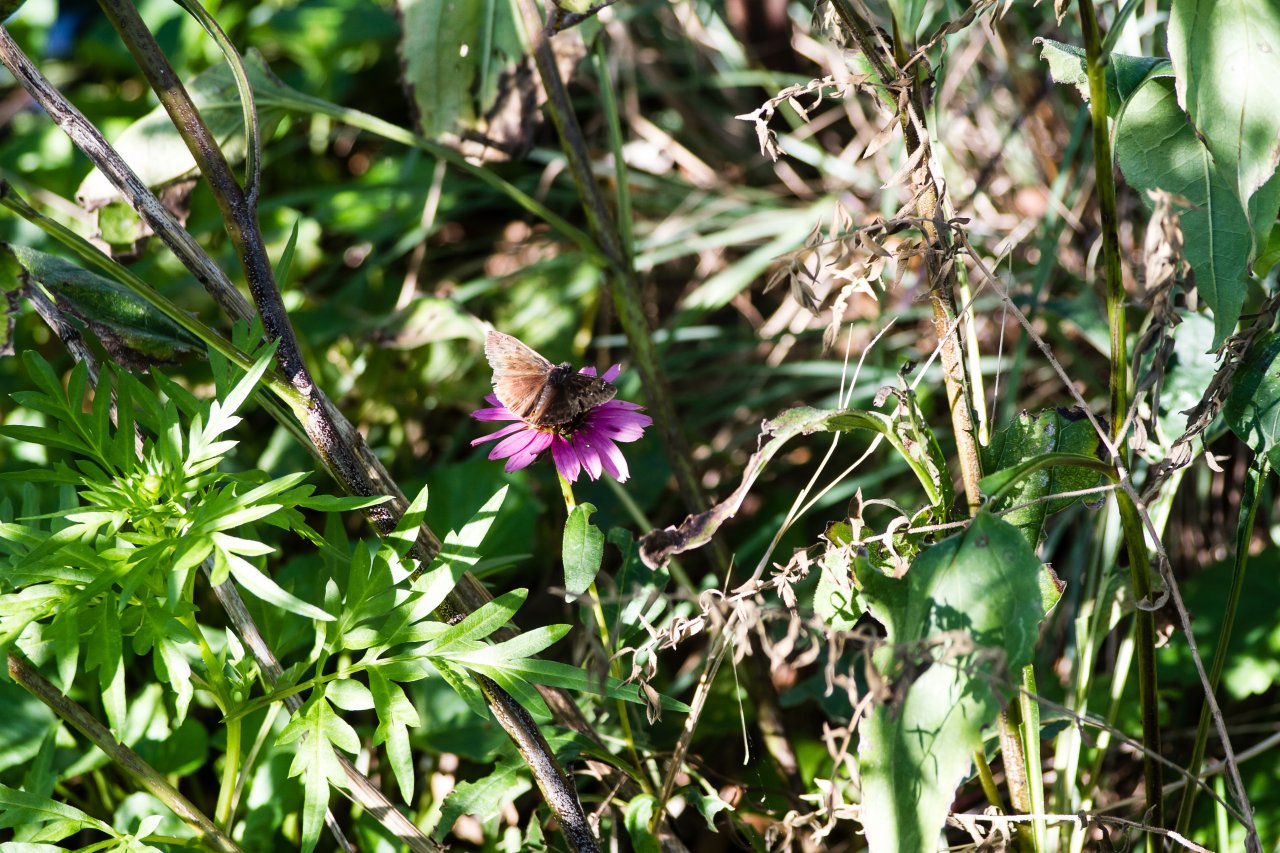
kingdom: Animalia
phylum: Arthropoda
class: Insecta
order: Lepidoptera
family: Hesperiidae
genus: Gesta
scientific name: Gesta
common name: Horace's Duskywing
